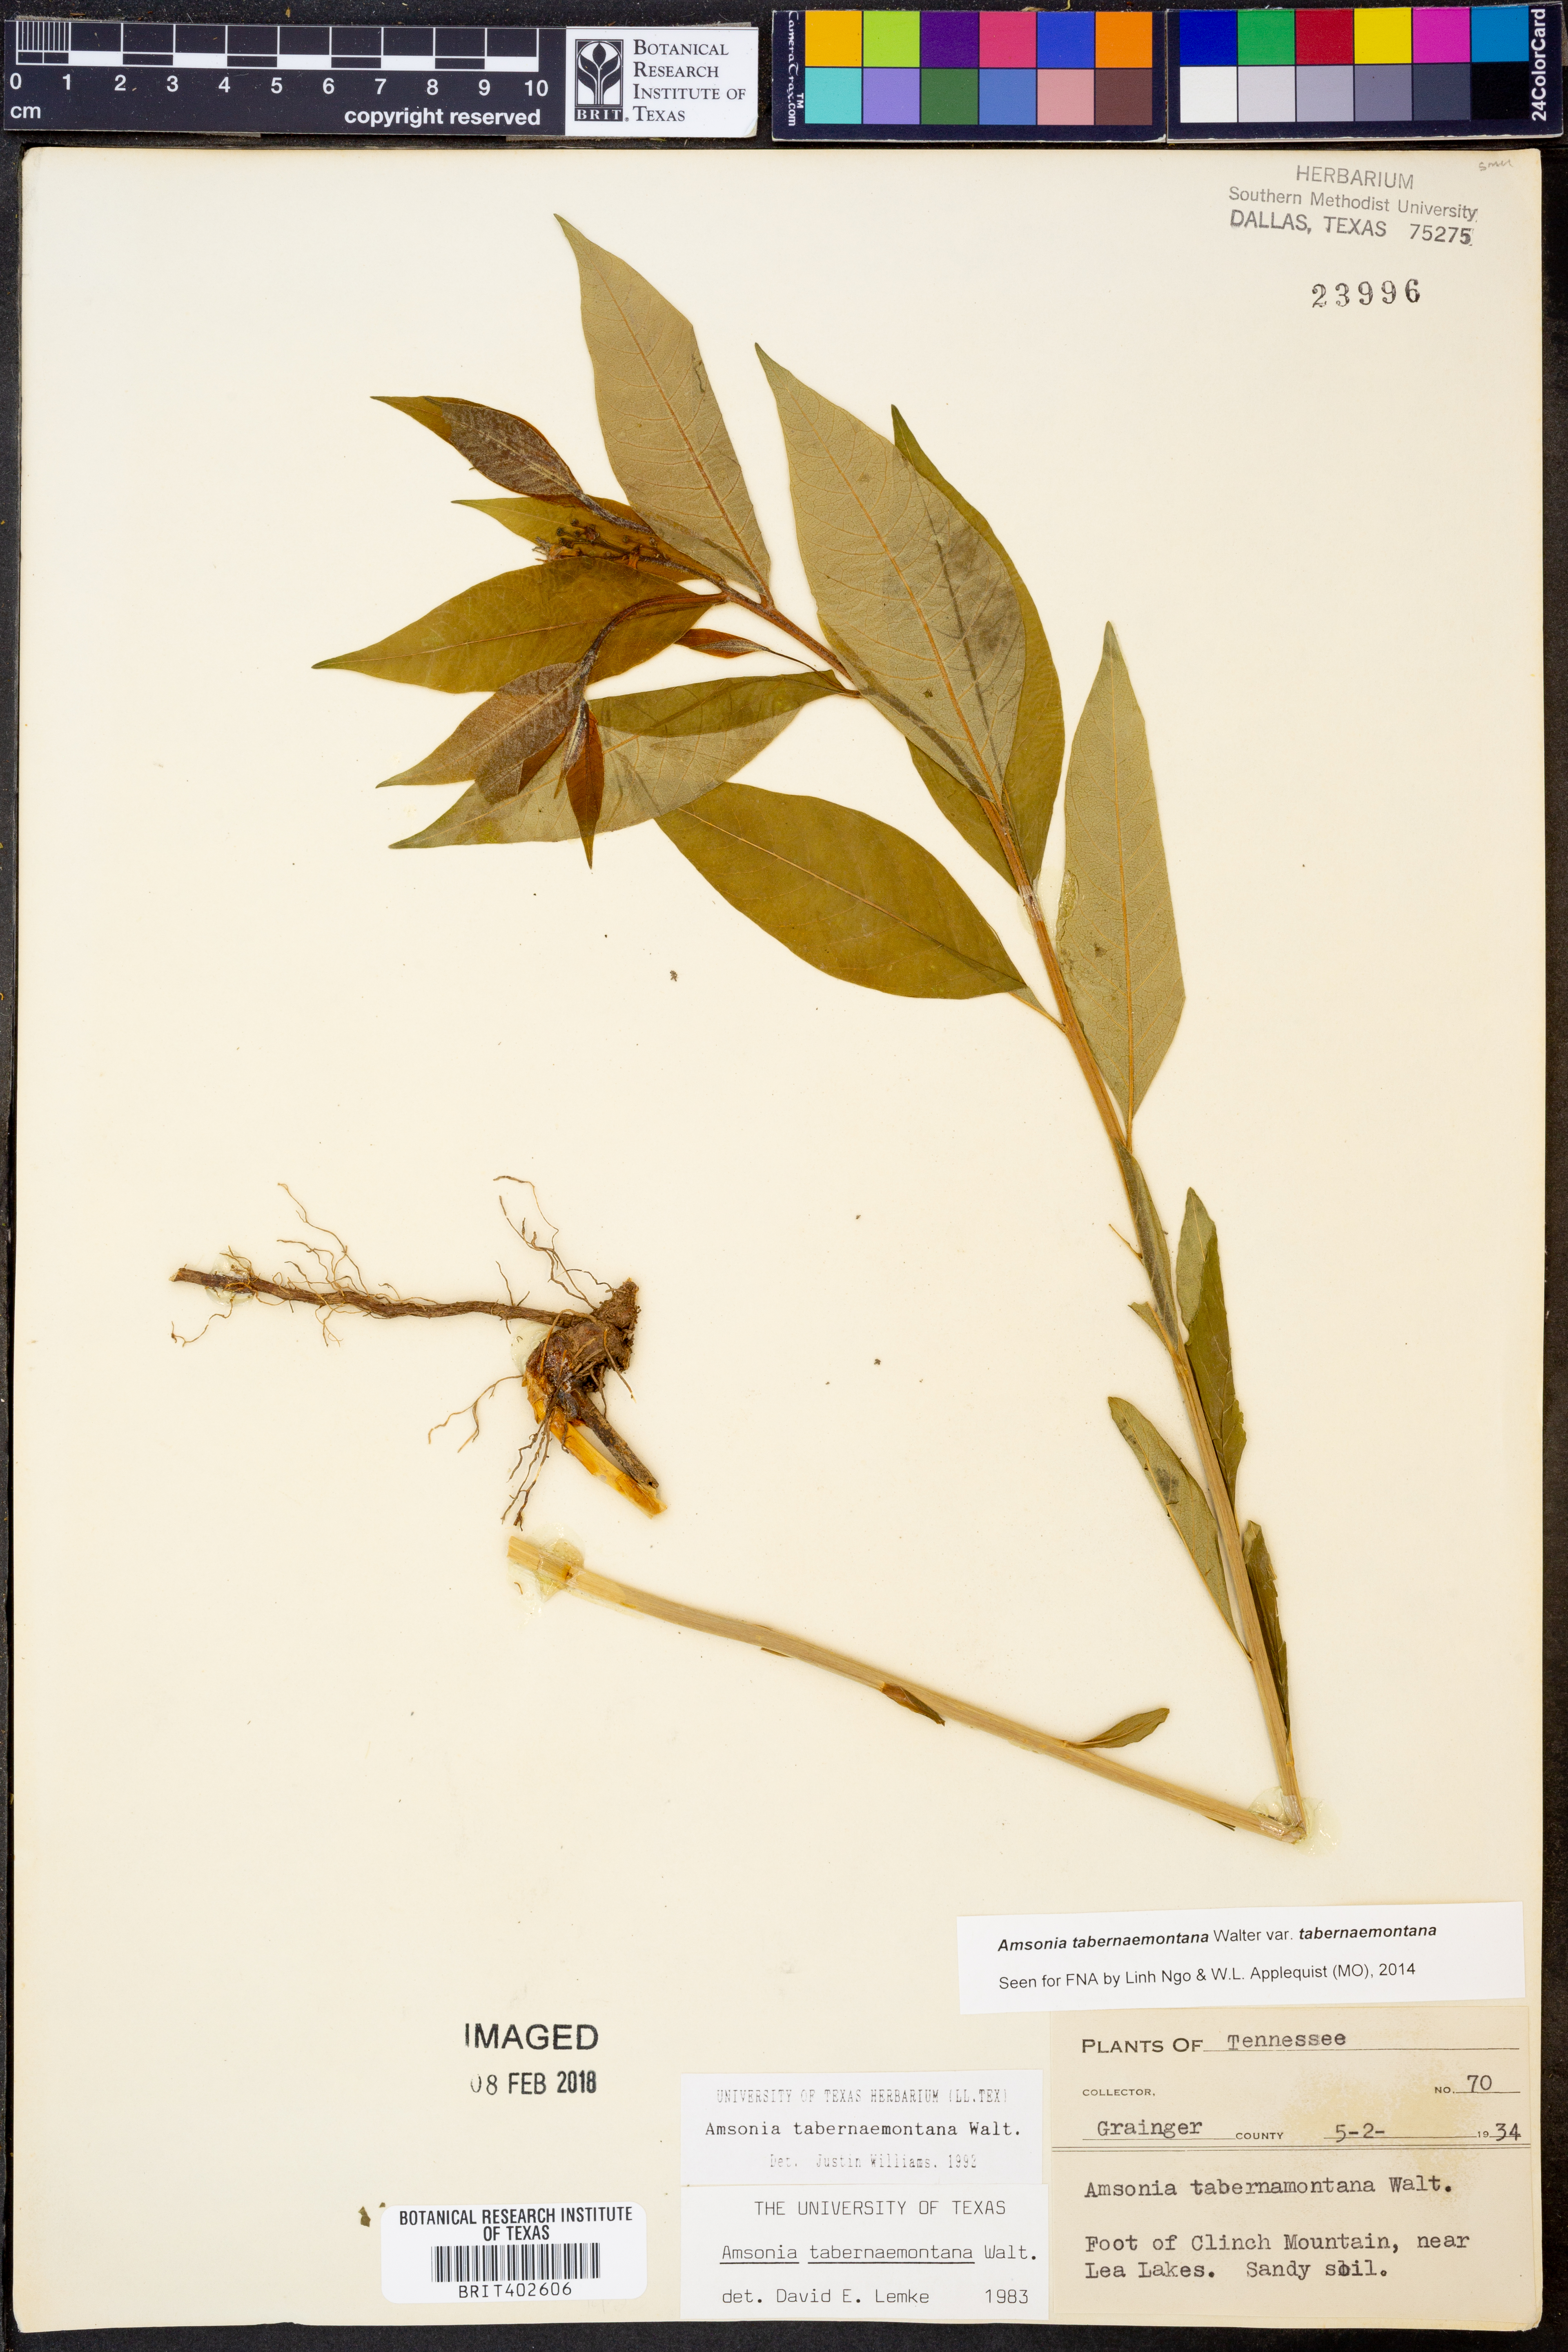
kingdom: Plantae
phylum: Tracheophyta
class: Magnoliopsida
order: Gentianales
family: Apocynaceae
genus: Amsonia
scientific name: Amsonia tabernaemontana
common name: Texas-star
